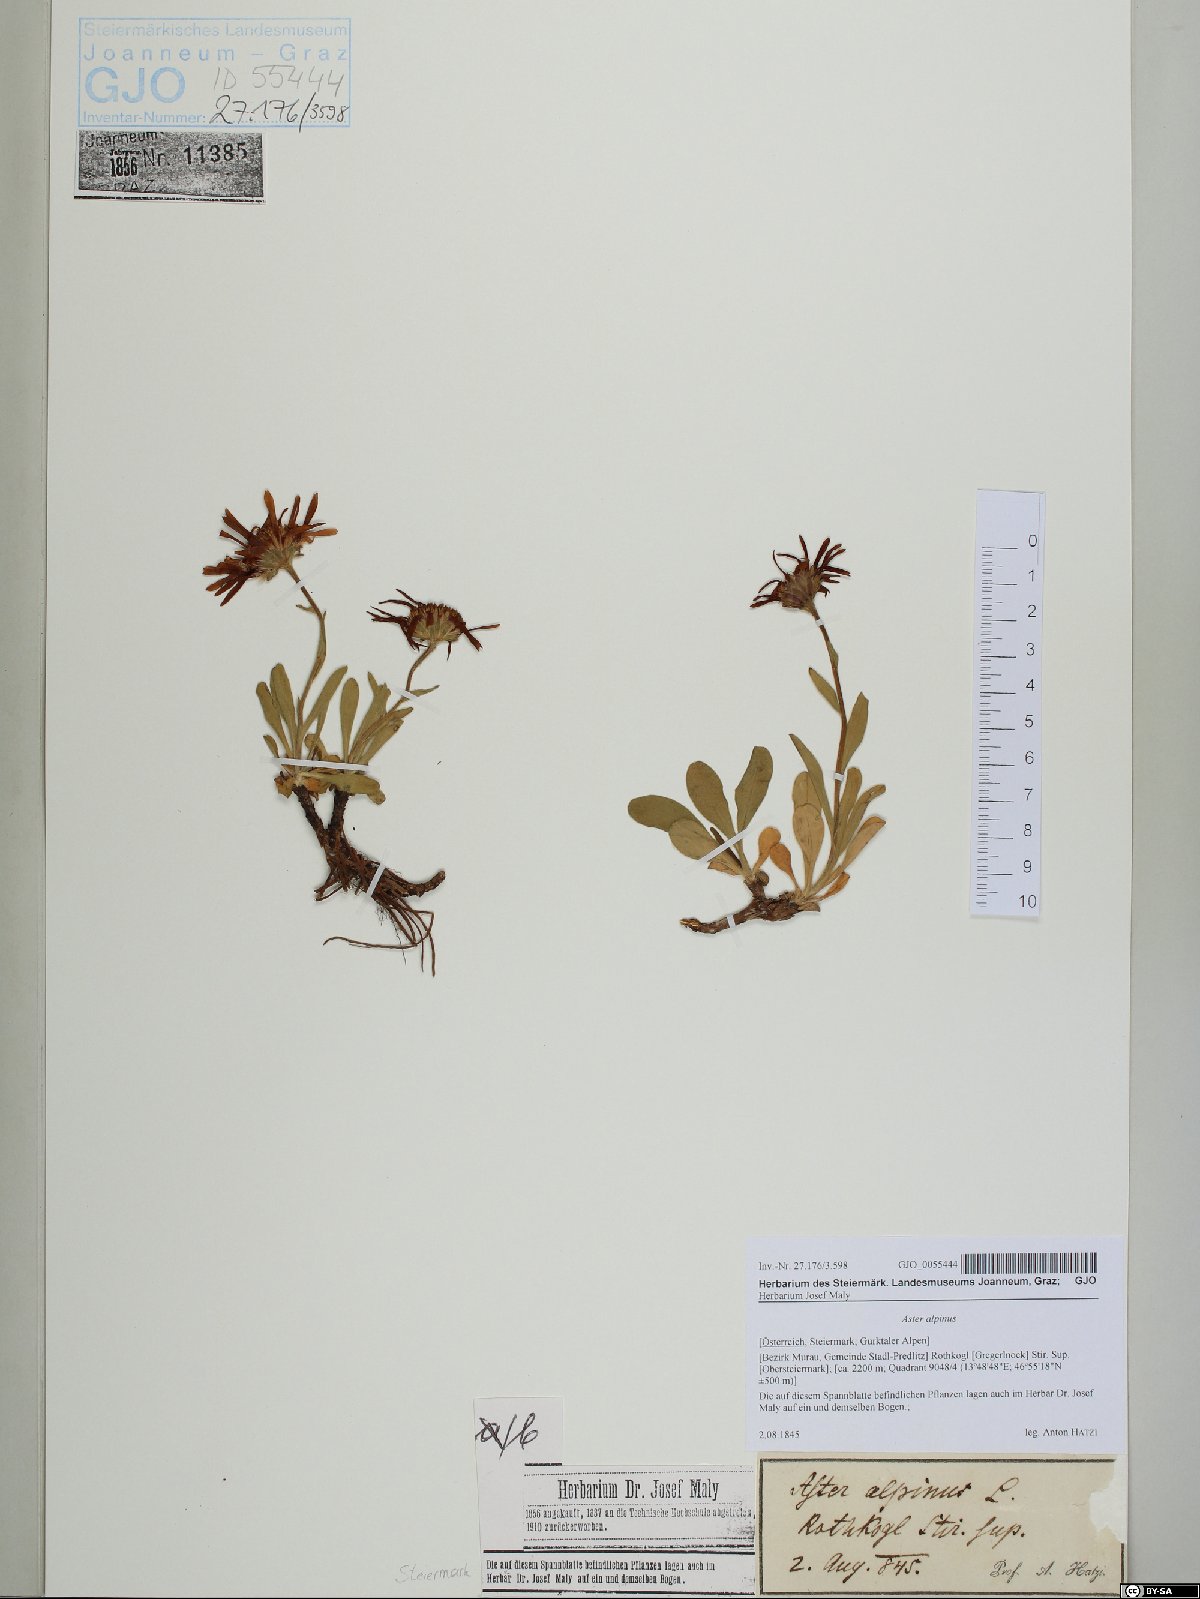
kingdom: Plantae
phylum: Tracheophyta
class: Magnoliopsida
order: Asterales
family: Asteraceae
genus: Aster
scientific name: Aster alpinus
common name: Alpine aster
